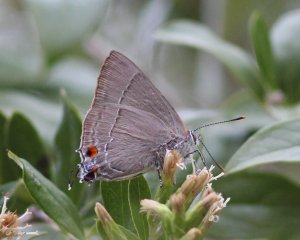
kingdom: Animalia
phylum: Arthropoda
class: Insecta
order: Lepidoptera
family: Lycaenidae
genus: Thecla
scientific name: Thecla marius
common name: Marius Hairstreak
